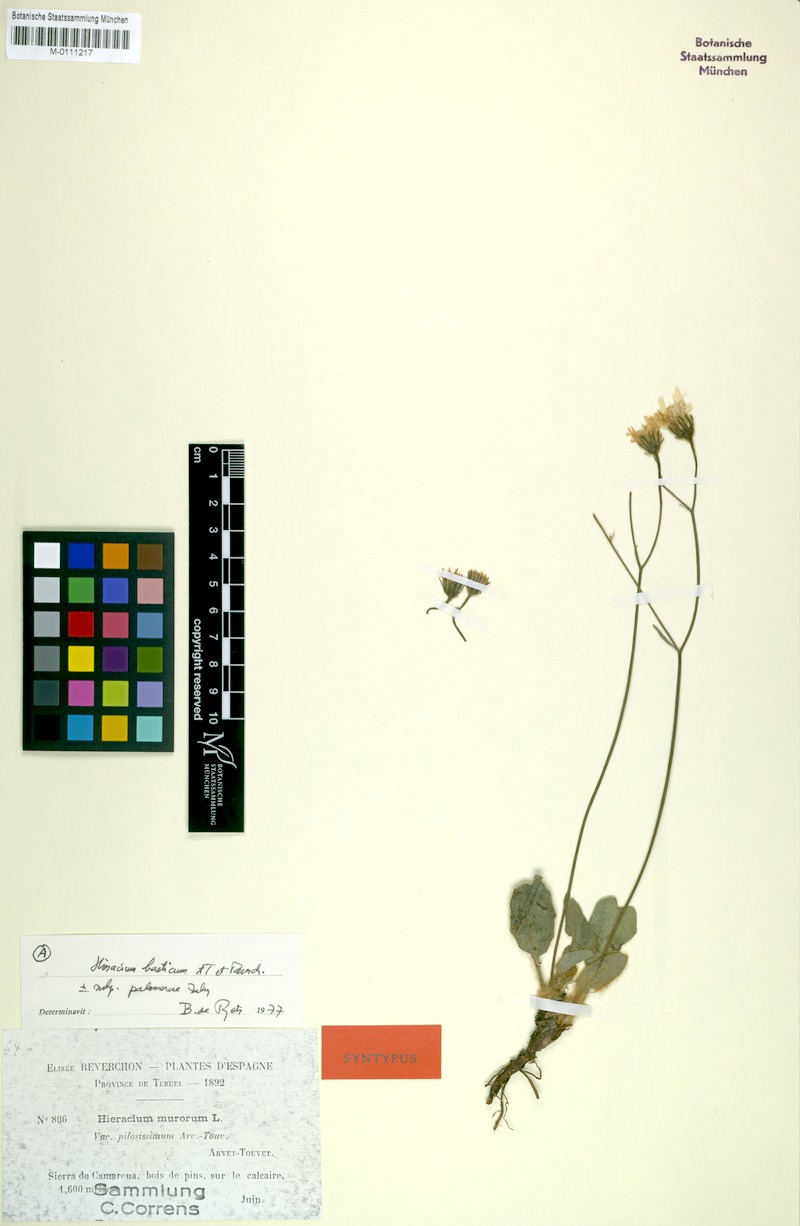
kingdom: Plantae
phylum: Tracheophyta
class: Magnoliopsida
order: Asterales
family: Asteraceae
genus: Hieracium
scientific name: Hieracium bourgaei
